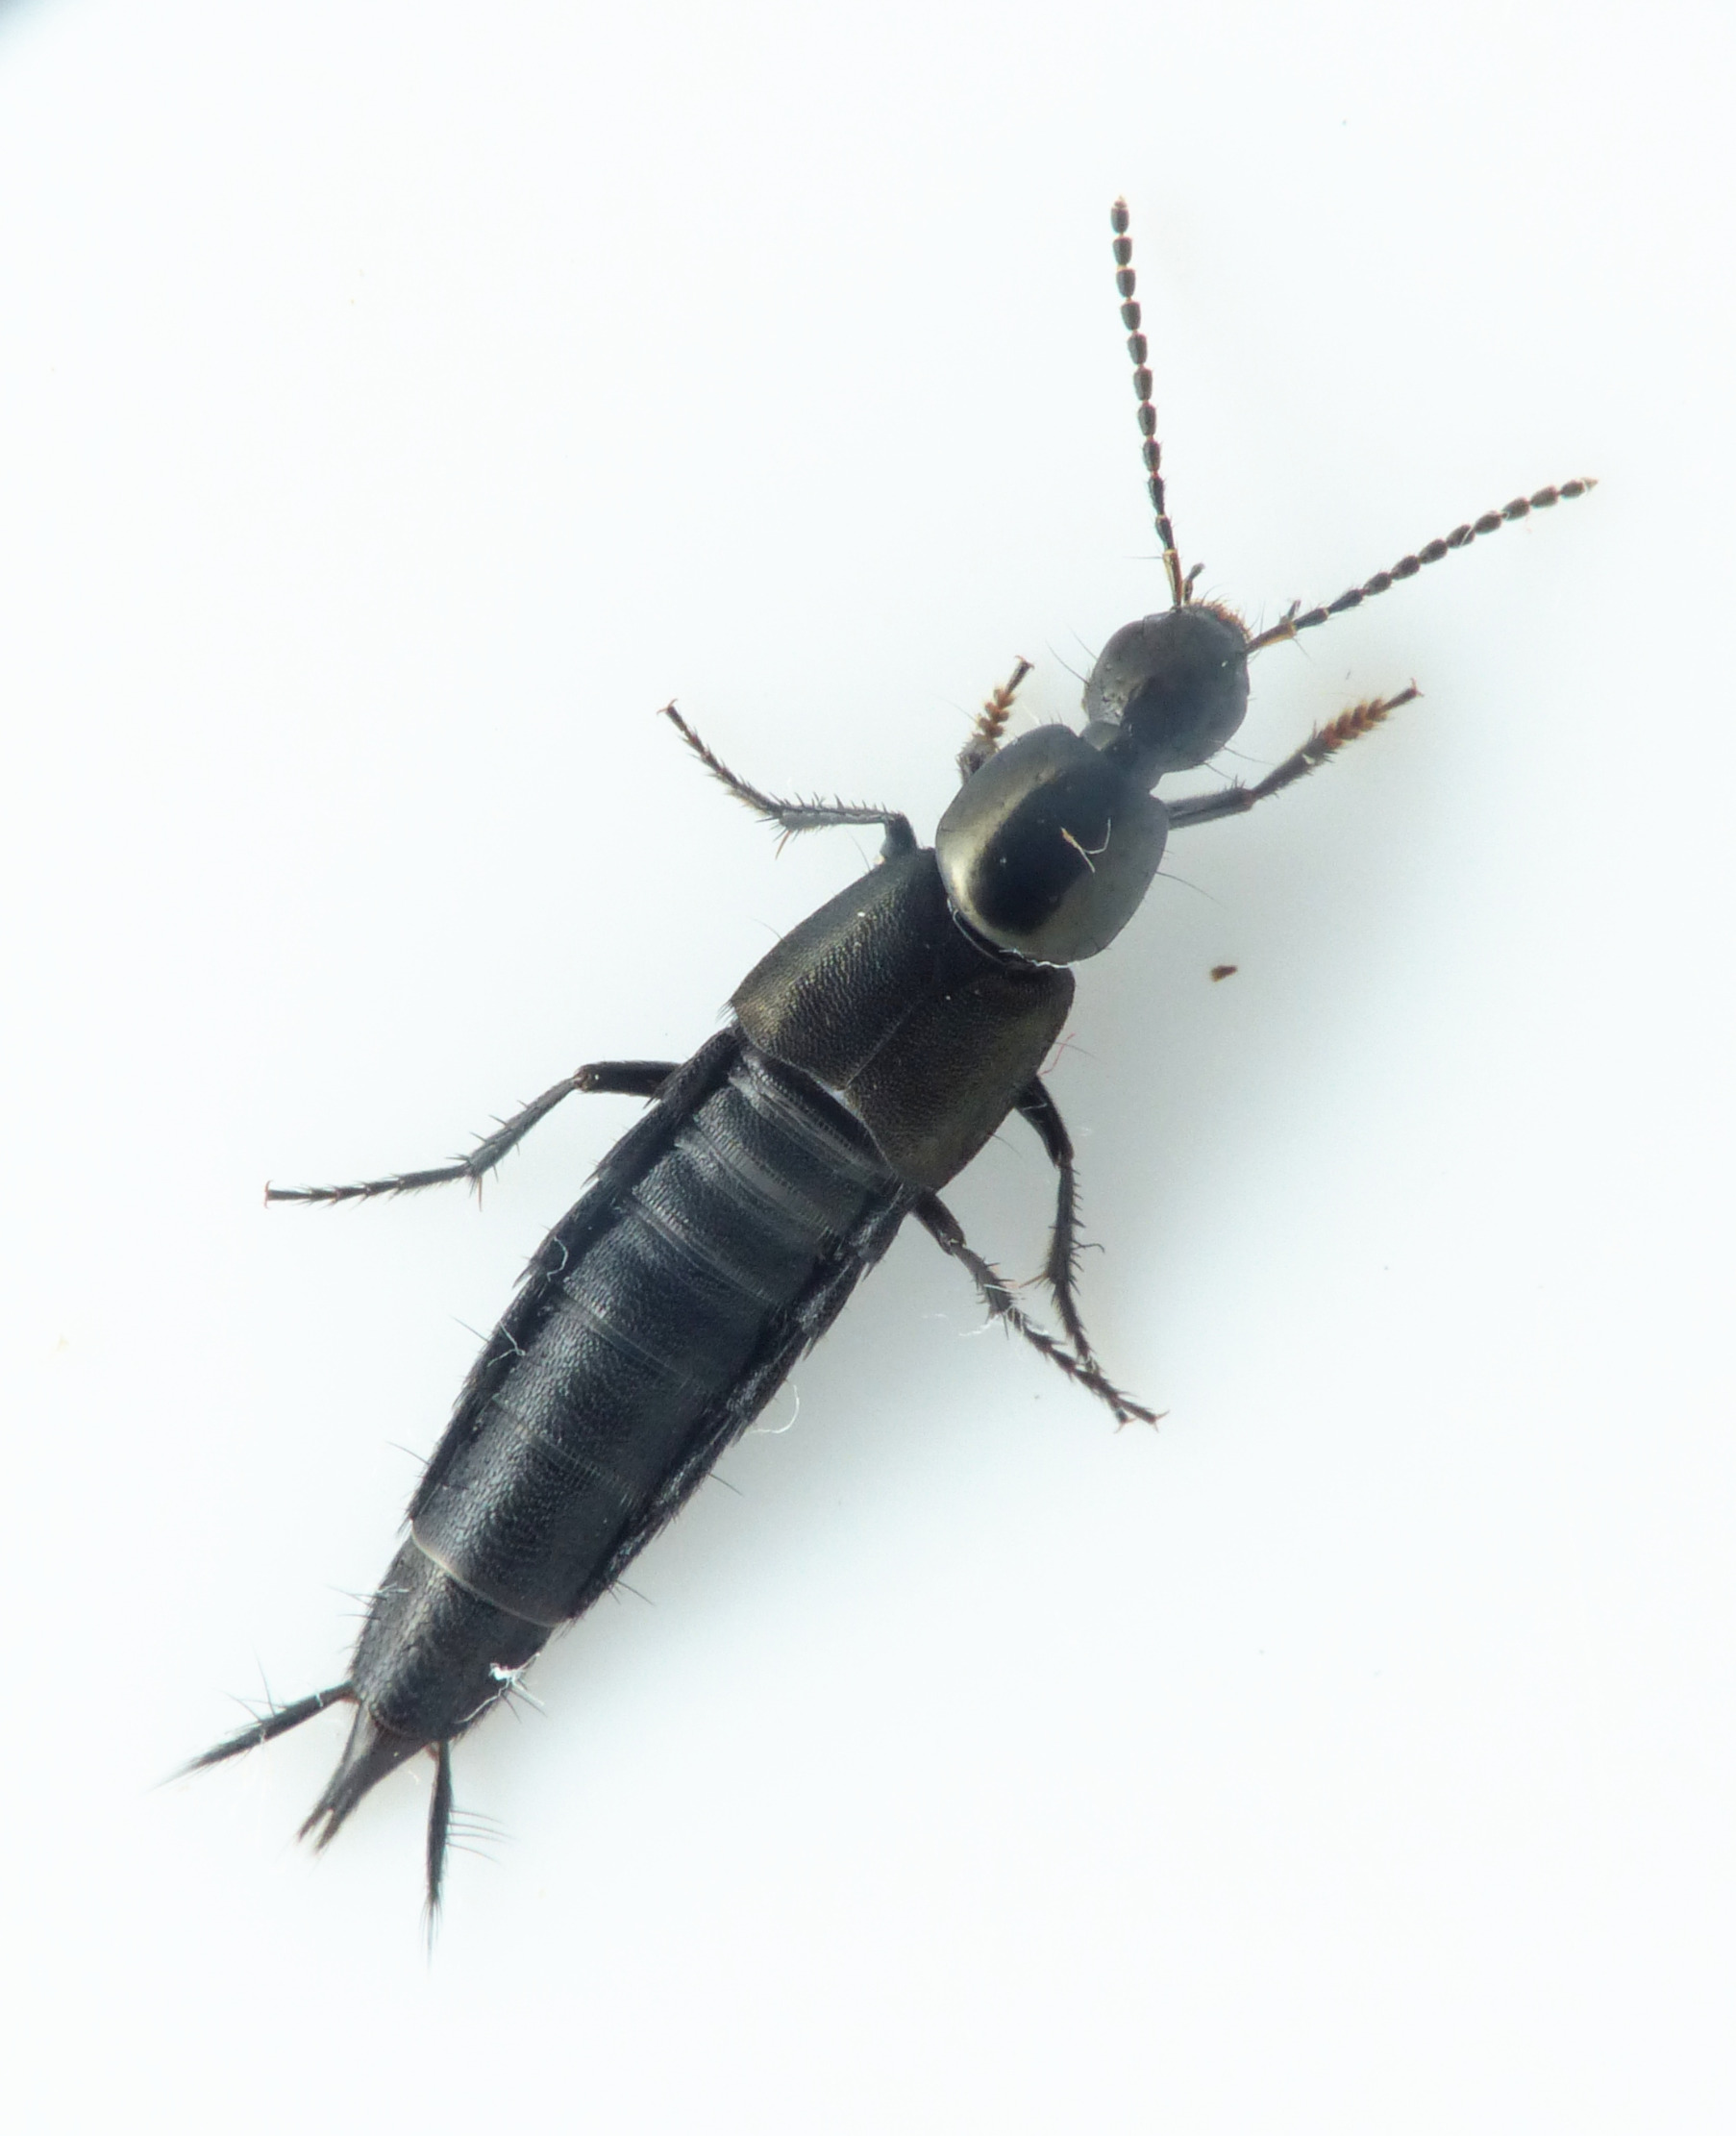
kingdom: Animalia
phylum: Arthropoda
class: Insecta
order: Coleoptera
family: Staphylinidae
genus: Philonthus
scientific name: Philonthus cognatus
